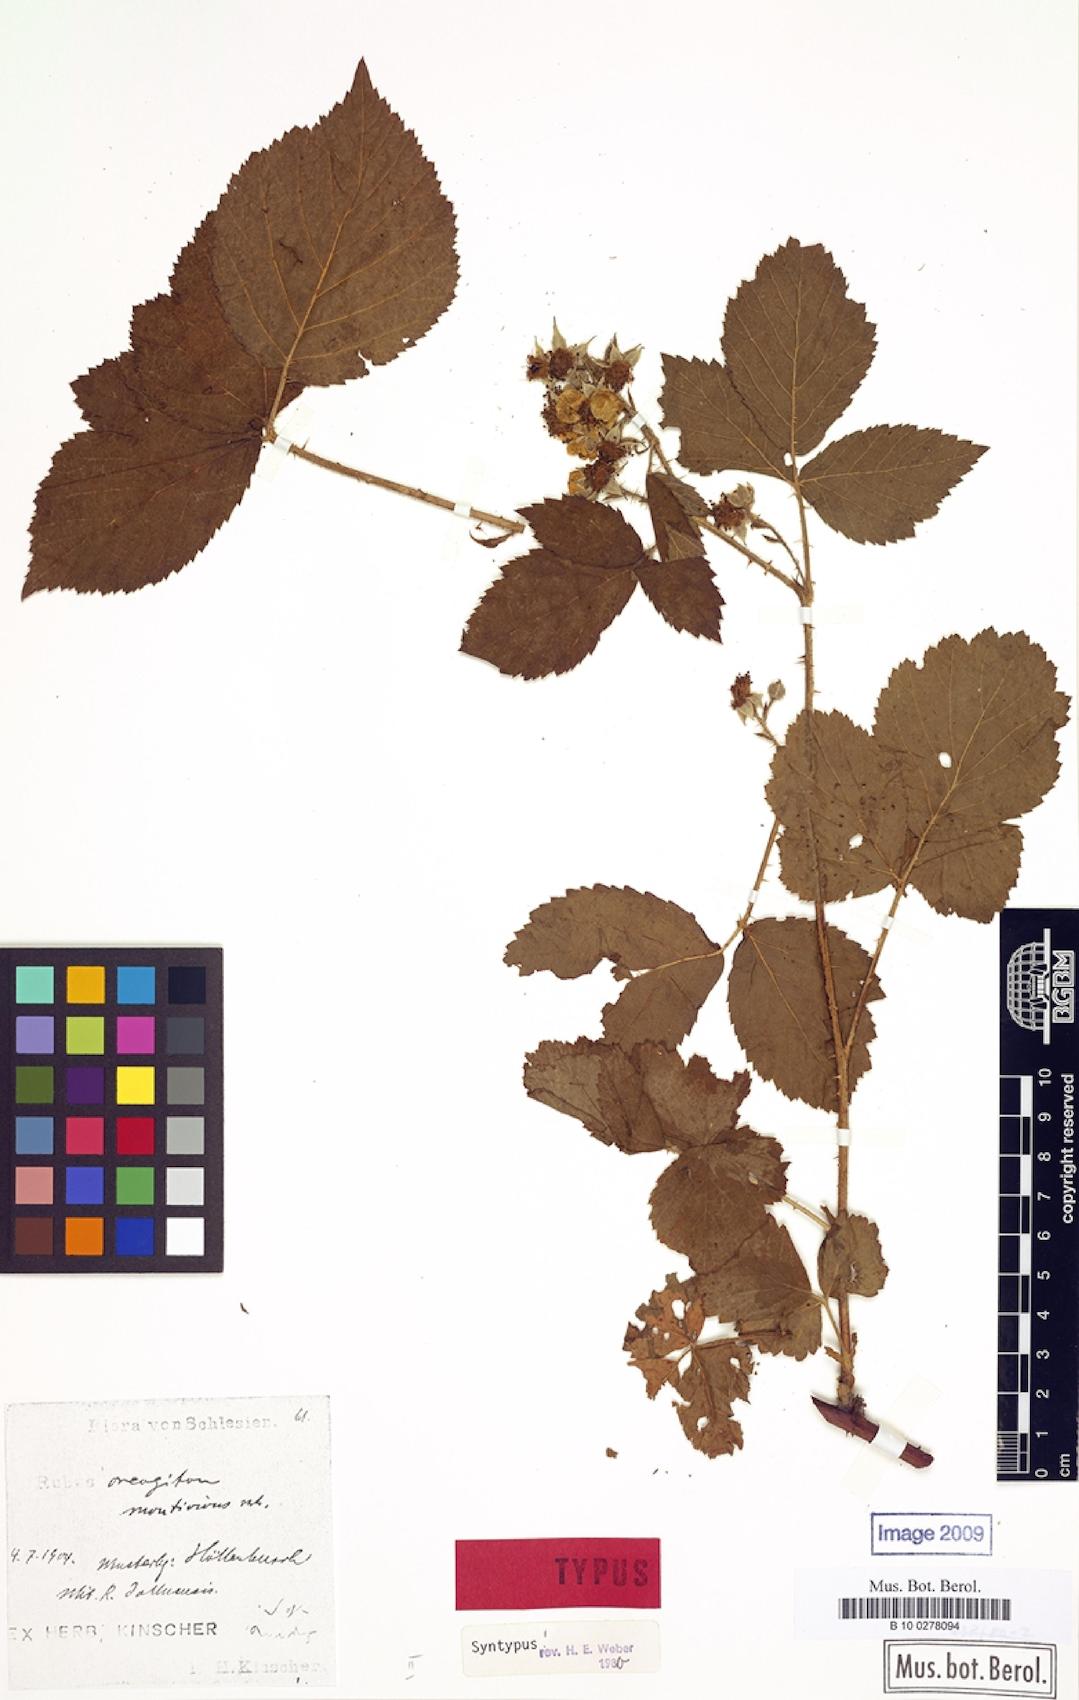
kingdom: Plantae
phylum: Tracheophyta
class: Magnoliopsida
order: Rosales
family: Rosaceae
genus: Rubus
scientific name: Rubus dollnensis
